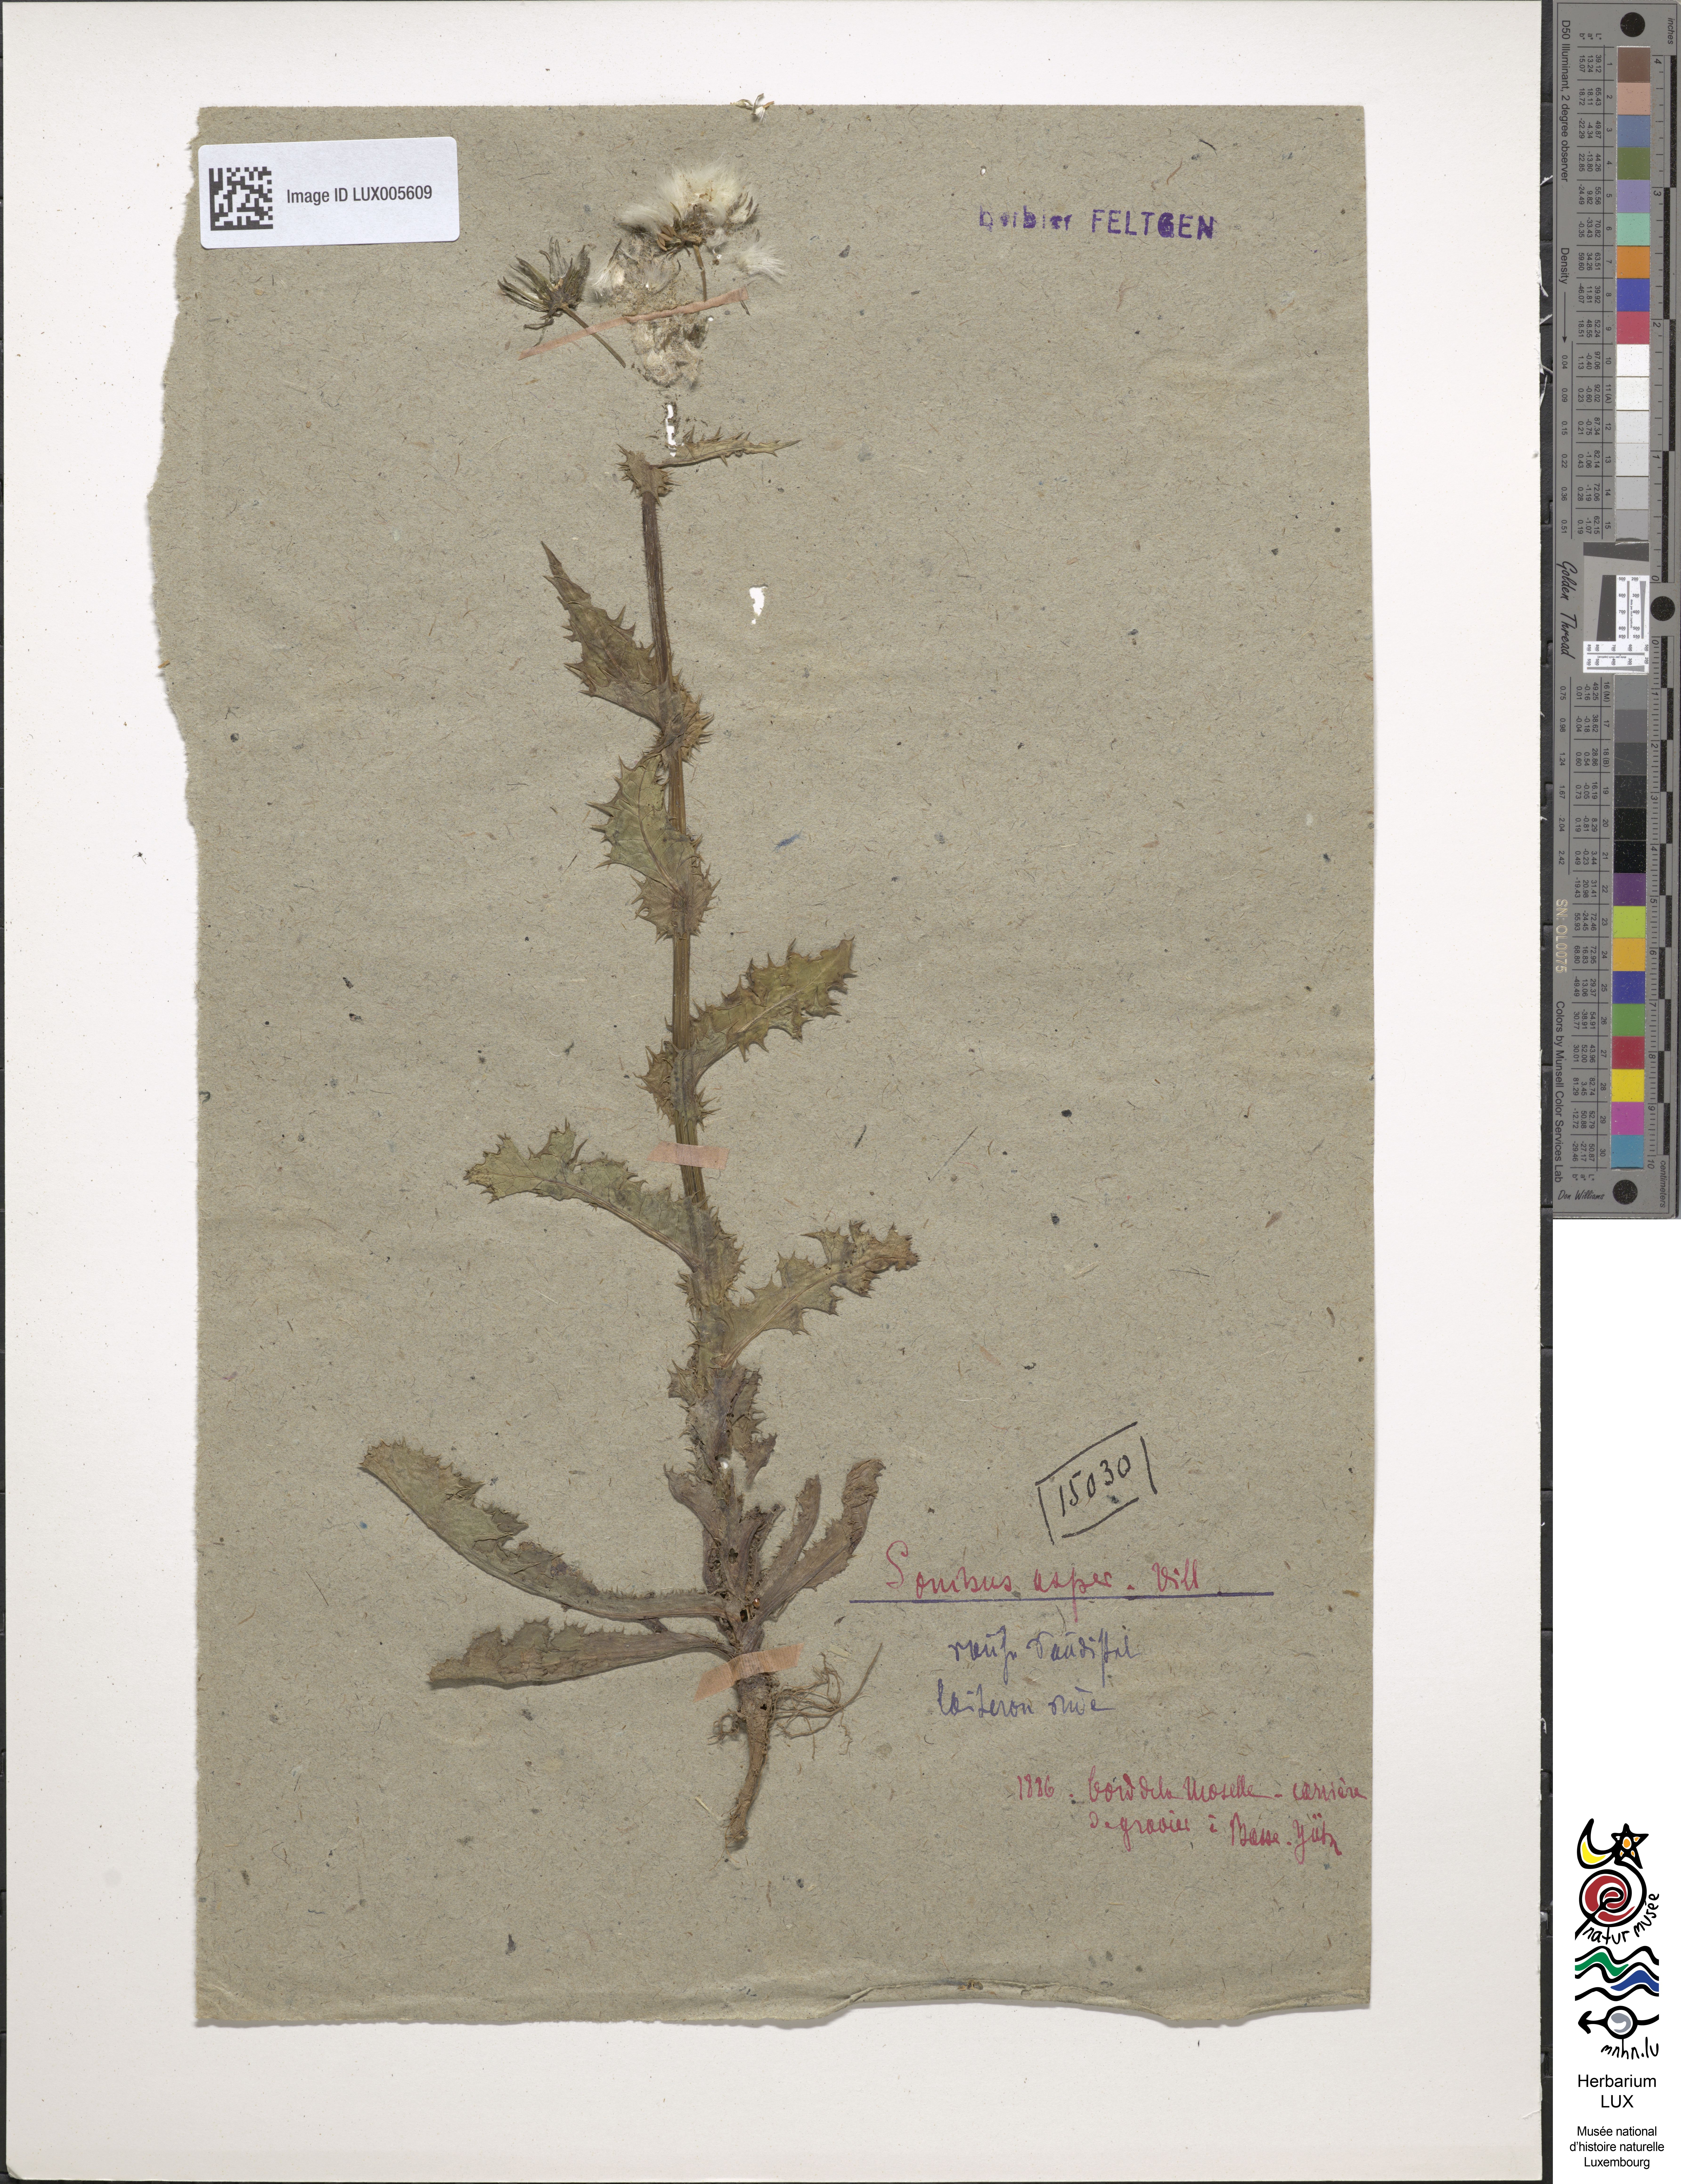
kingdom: Plantae
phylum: Tracheophyta
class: Magnoliopsida
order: Asterales
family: Asteraceae
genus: Sonchus
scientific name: Sonchus asper
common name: Prickly sow-thistle
